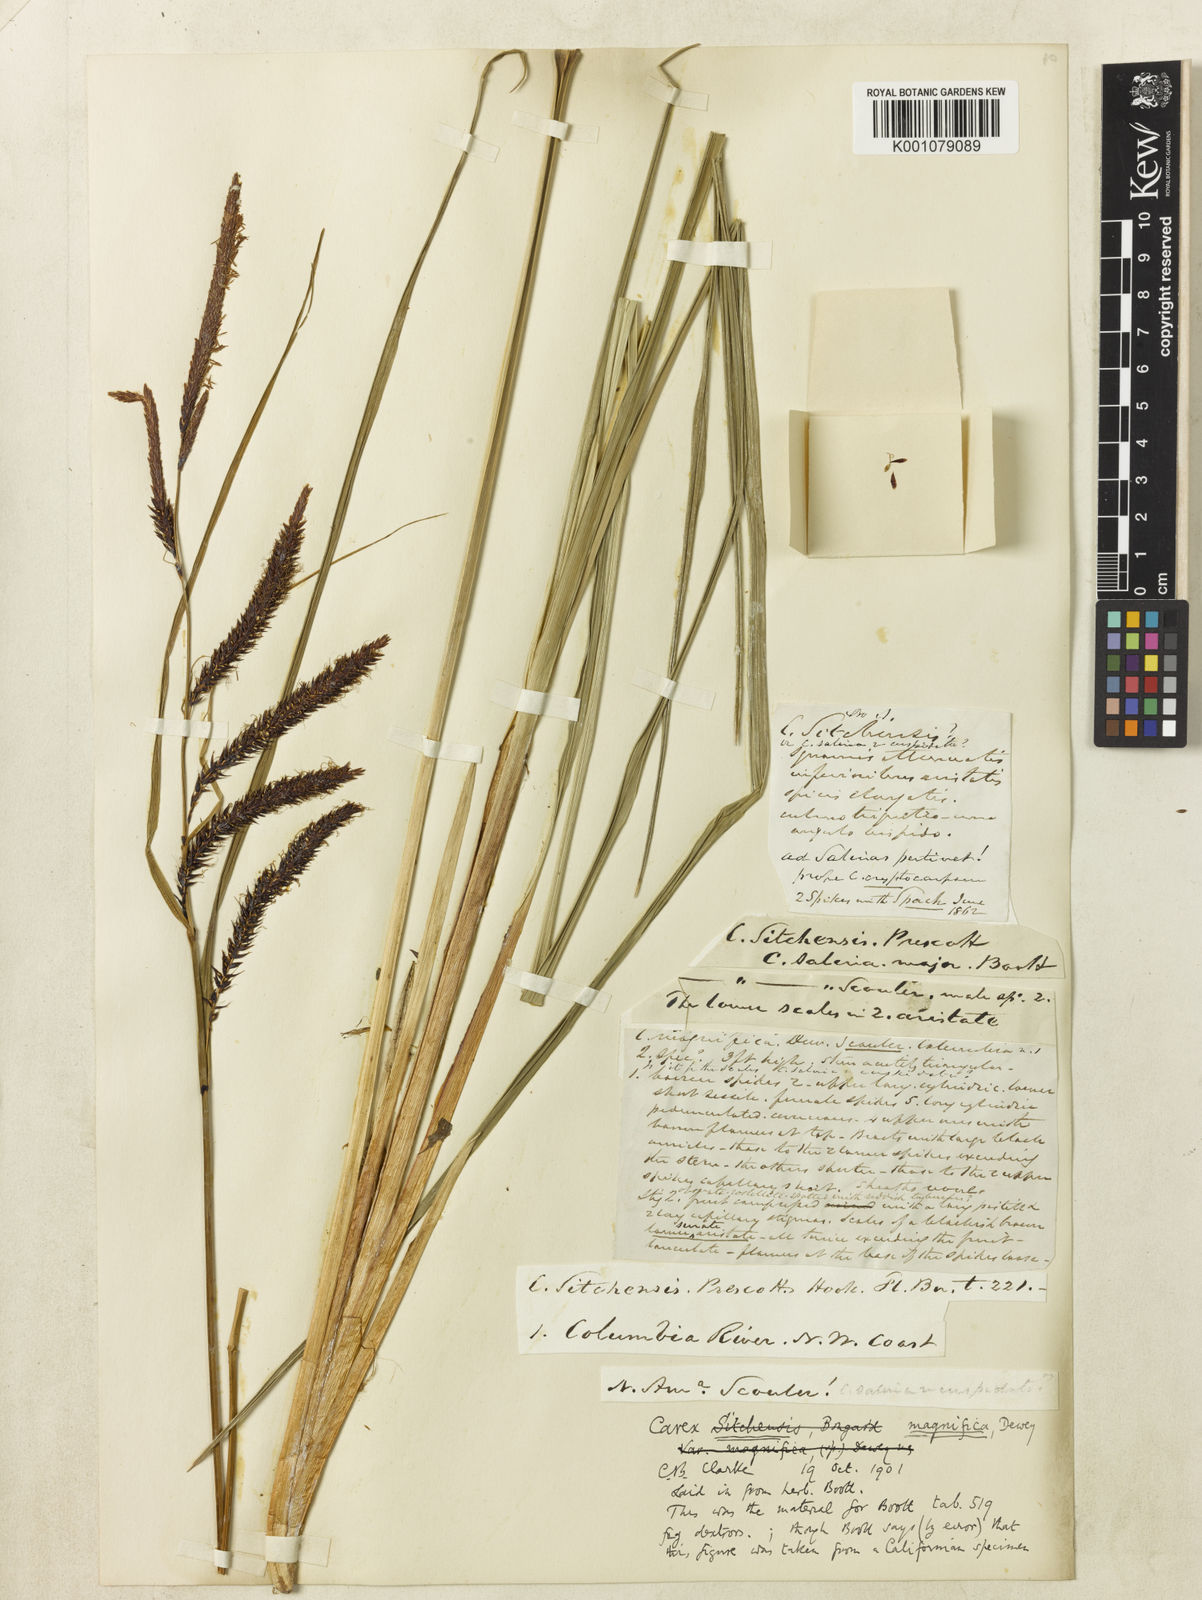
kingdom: Plantae
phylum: Tracheophyta
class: Liliopsida
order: Poales
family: Cyperaceae
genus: Carex
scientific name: Carex obnupta
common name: Slough sedge
